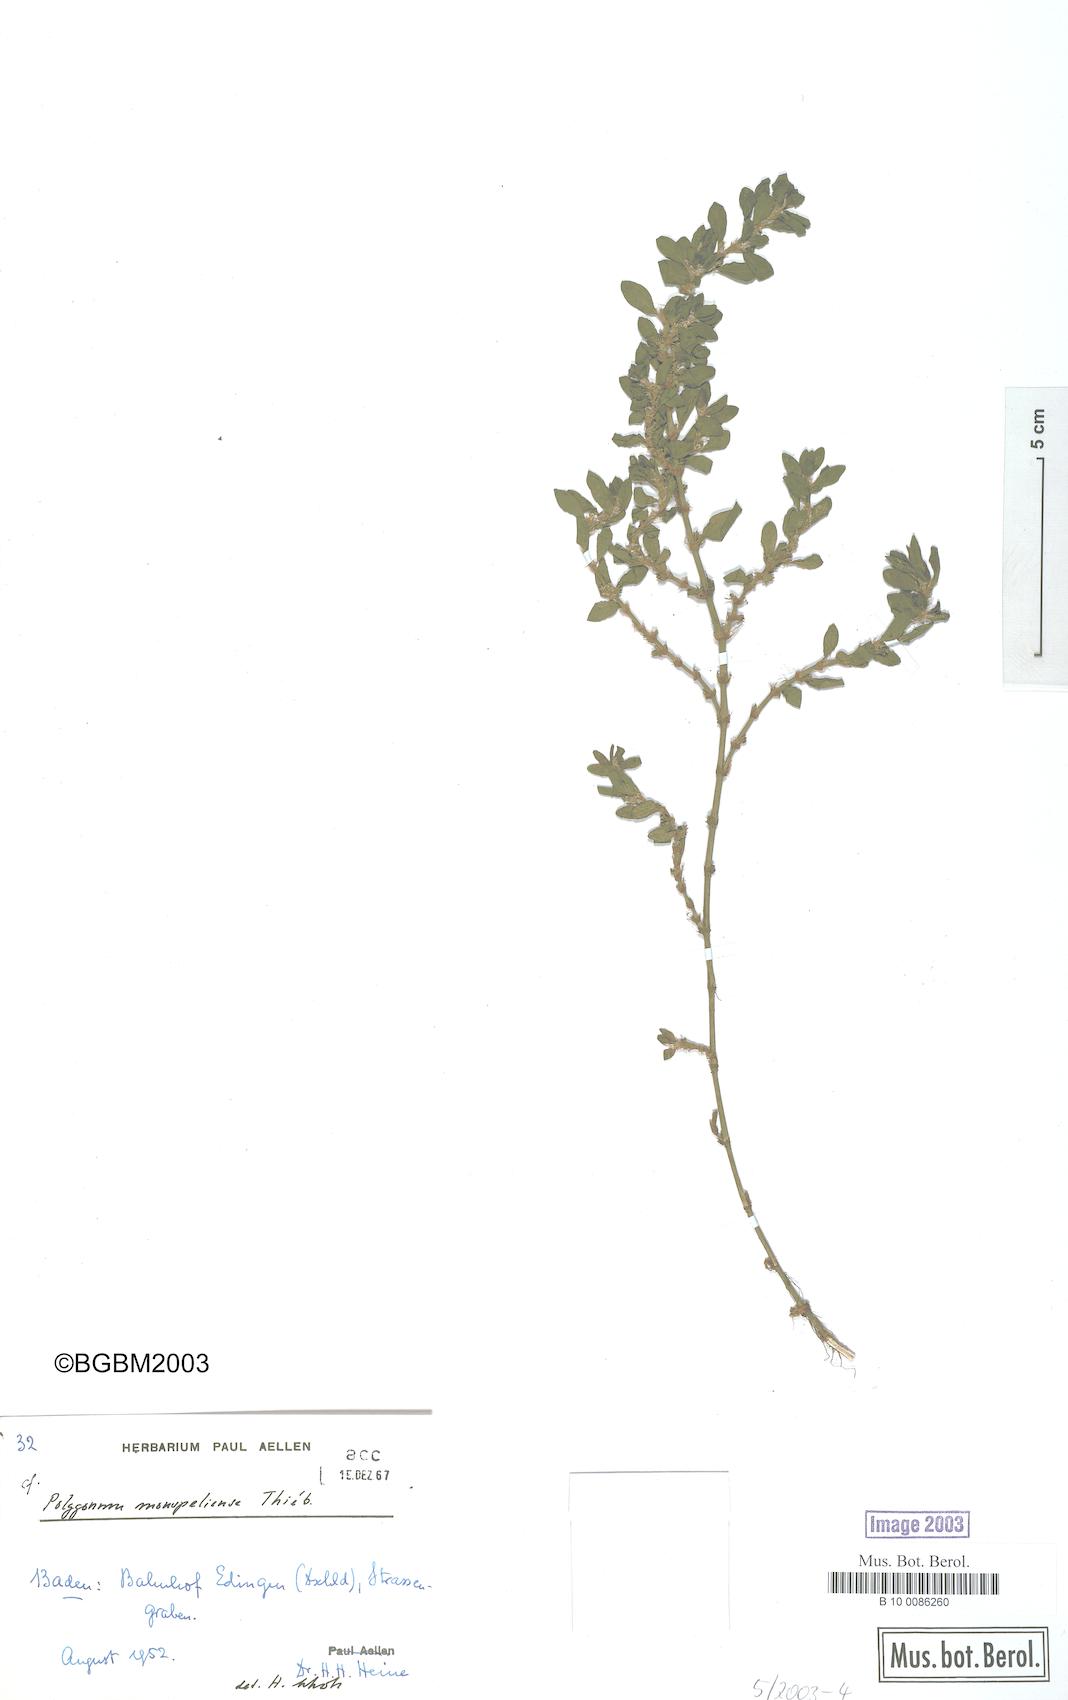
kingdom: Plantae
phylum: Tracheophyta
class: Magnoliopsida
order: Caryophyllales
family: Polygonaceae
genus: Polygonum
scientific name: Polygonum
